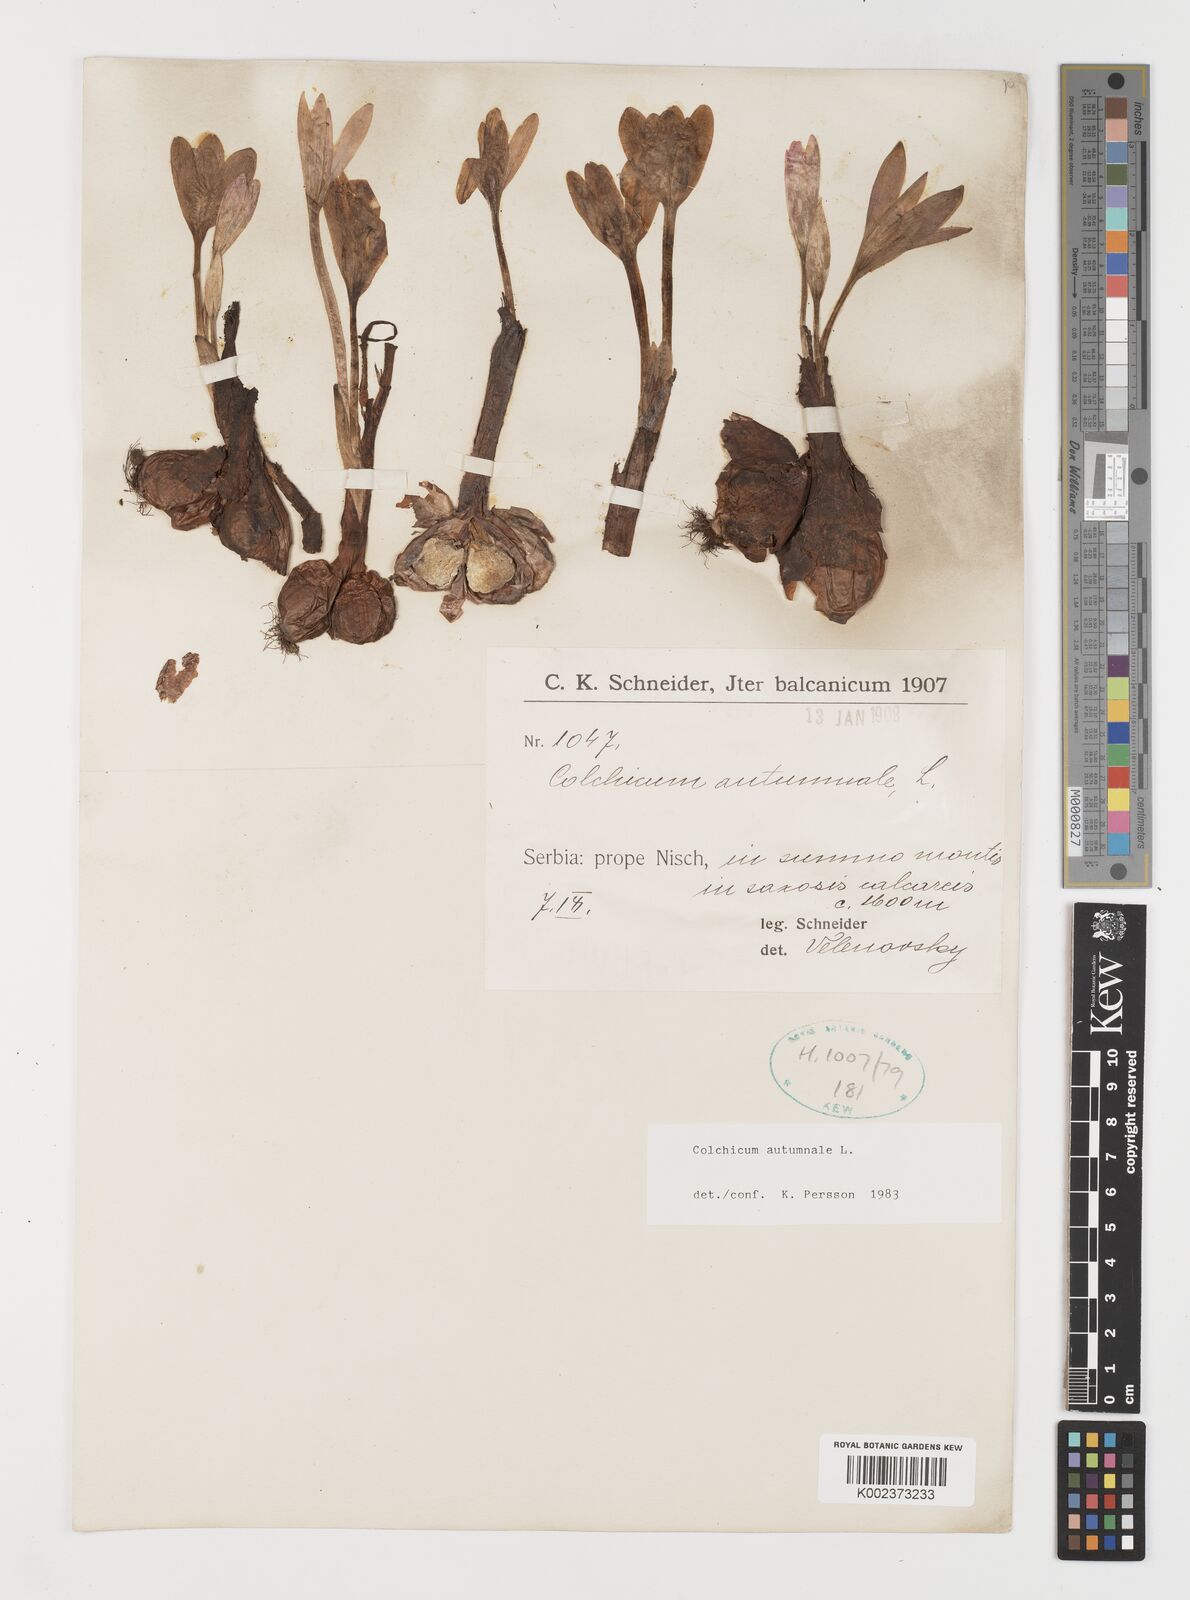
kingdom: Plantae
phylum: Tracheophyta
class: Liliopsida
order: Liliales
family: Colchicaceae
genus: Colchicum
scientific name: Colchicum autumnale
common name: Autumn crocus
